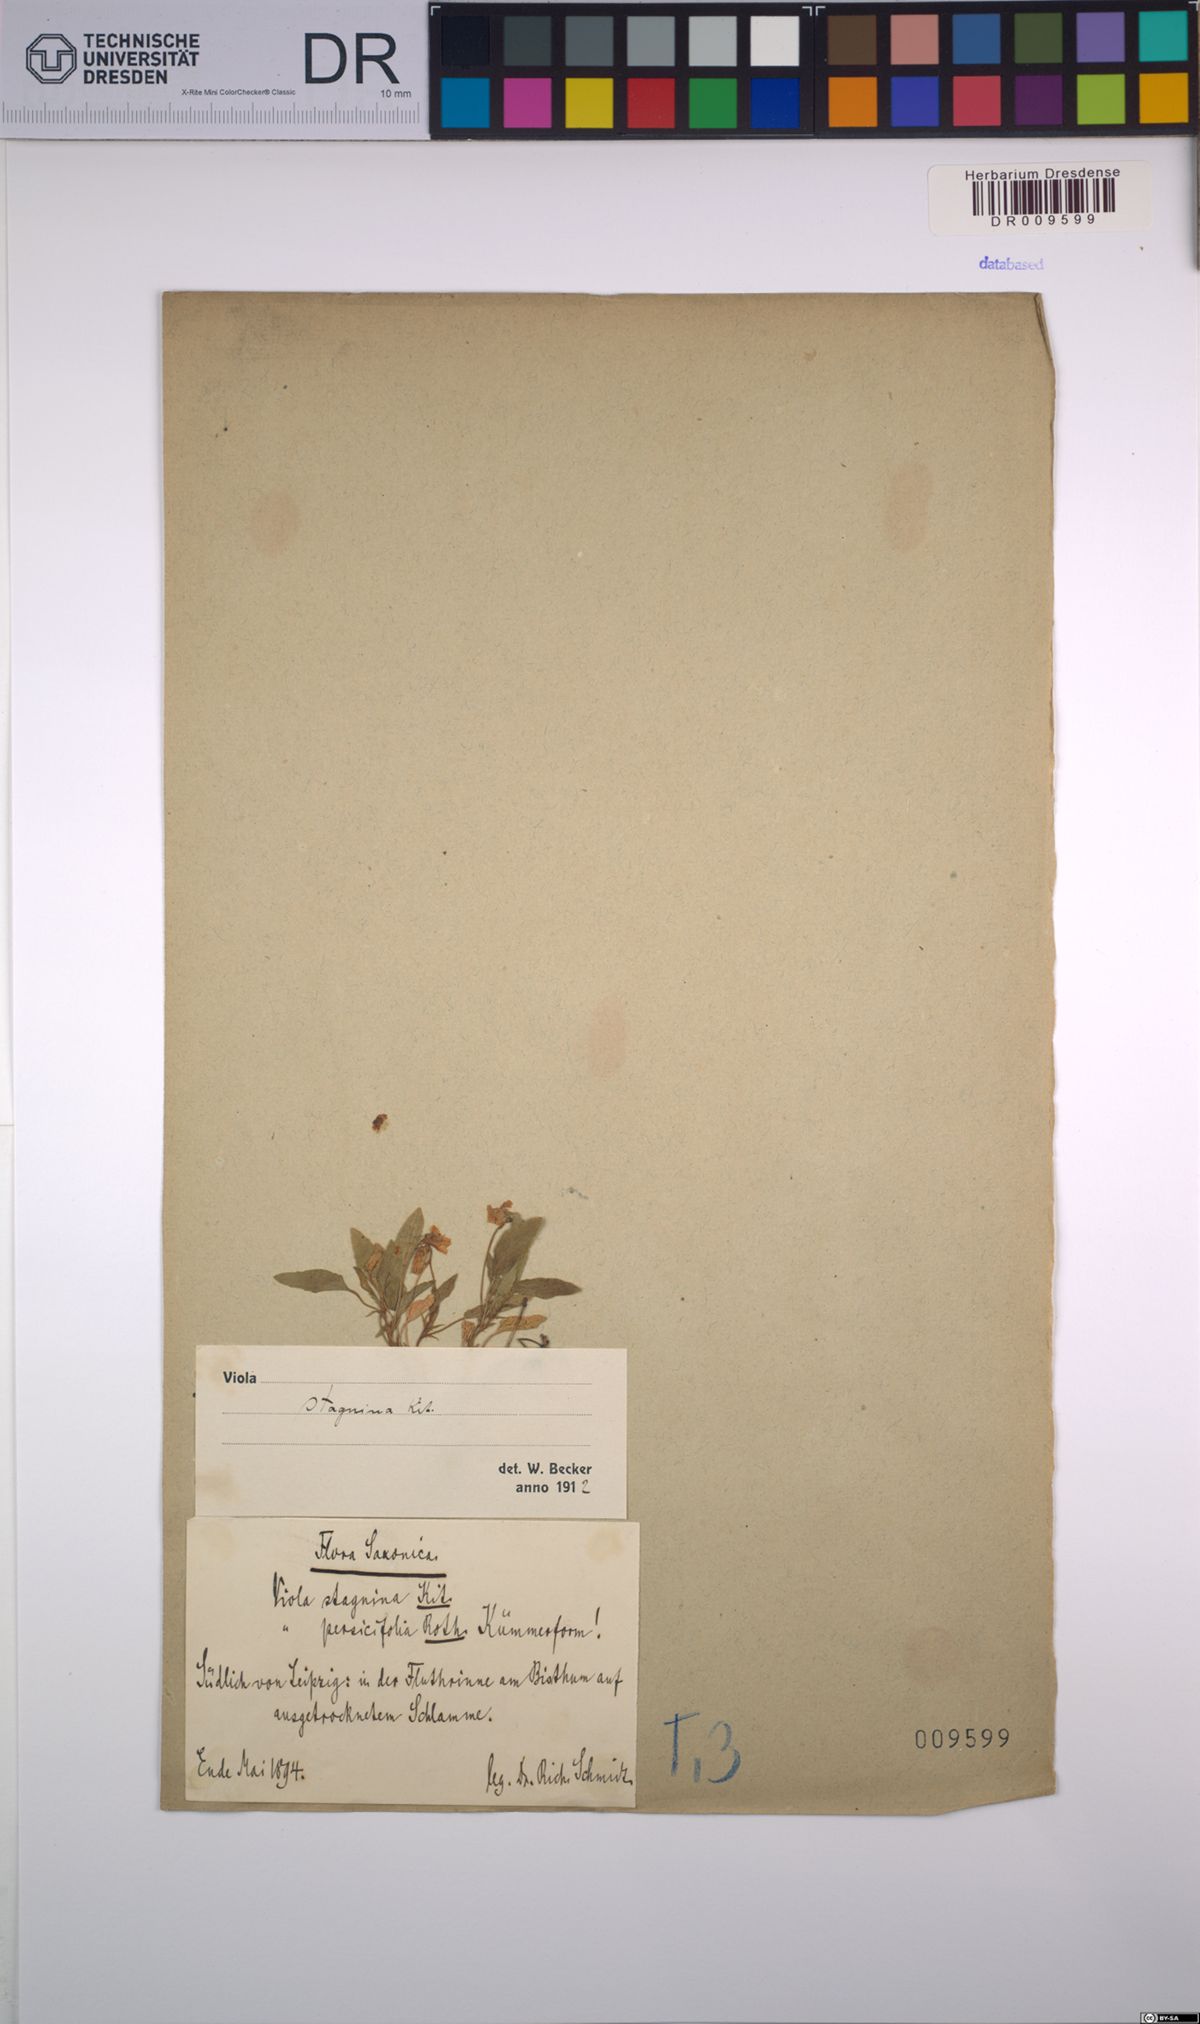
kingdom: Plantae
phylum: Tracheophyta
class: Magnoliopsida
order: Malpighiales
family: Violaceae
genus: Viola
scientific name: Viola stagnina
